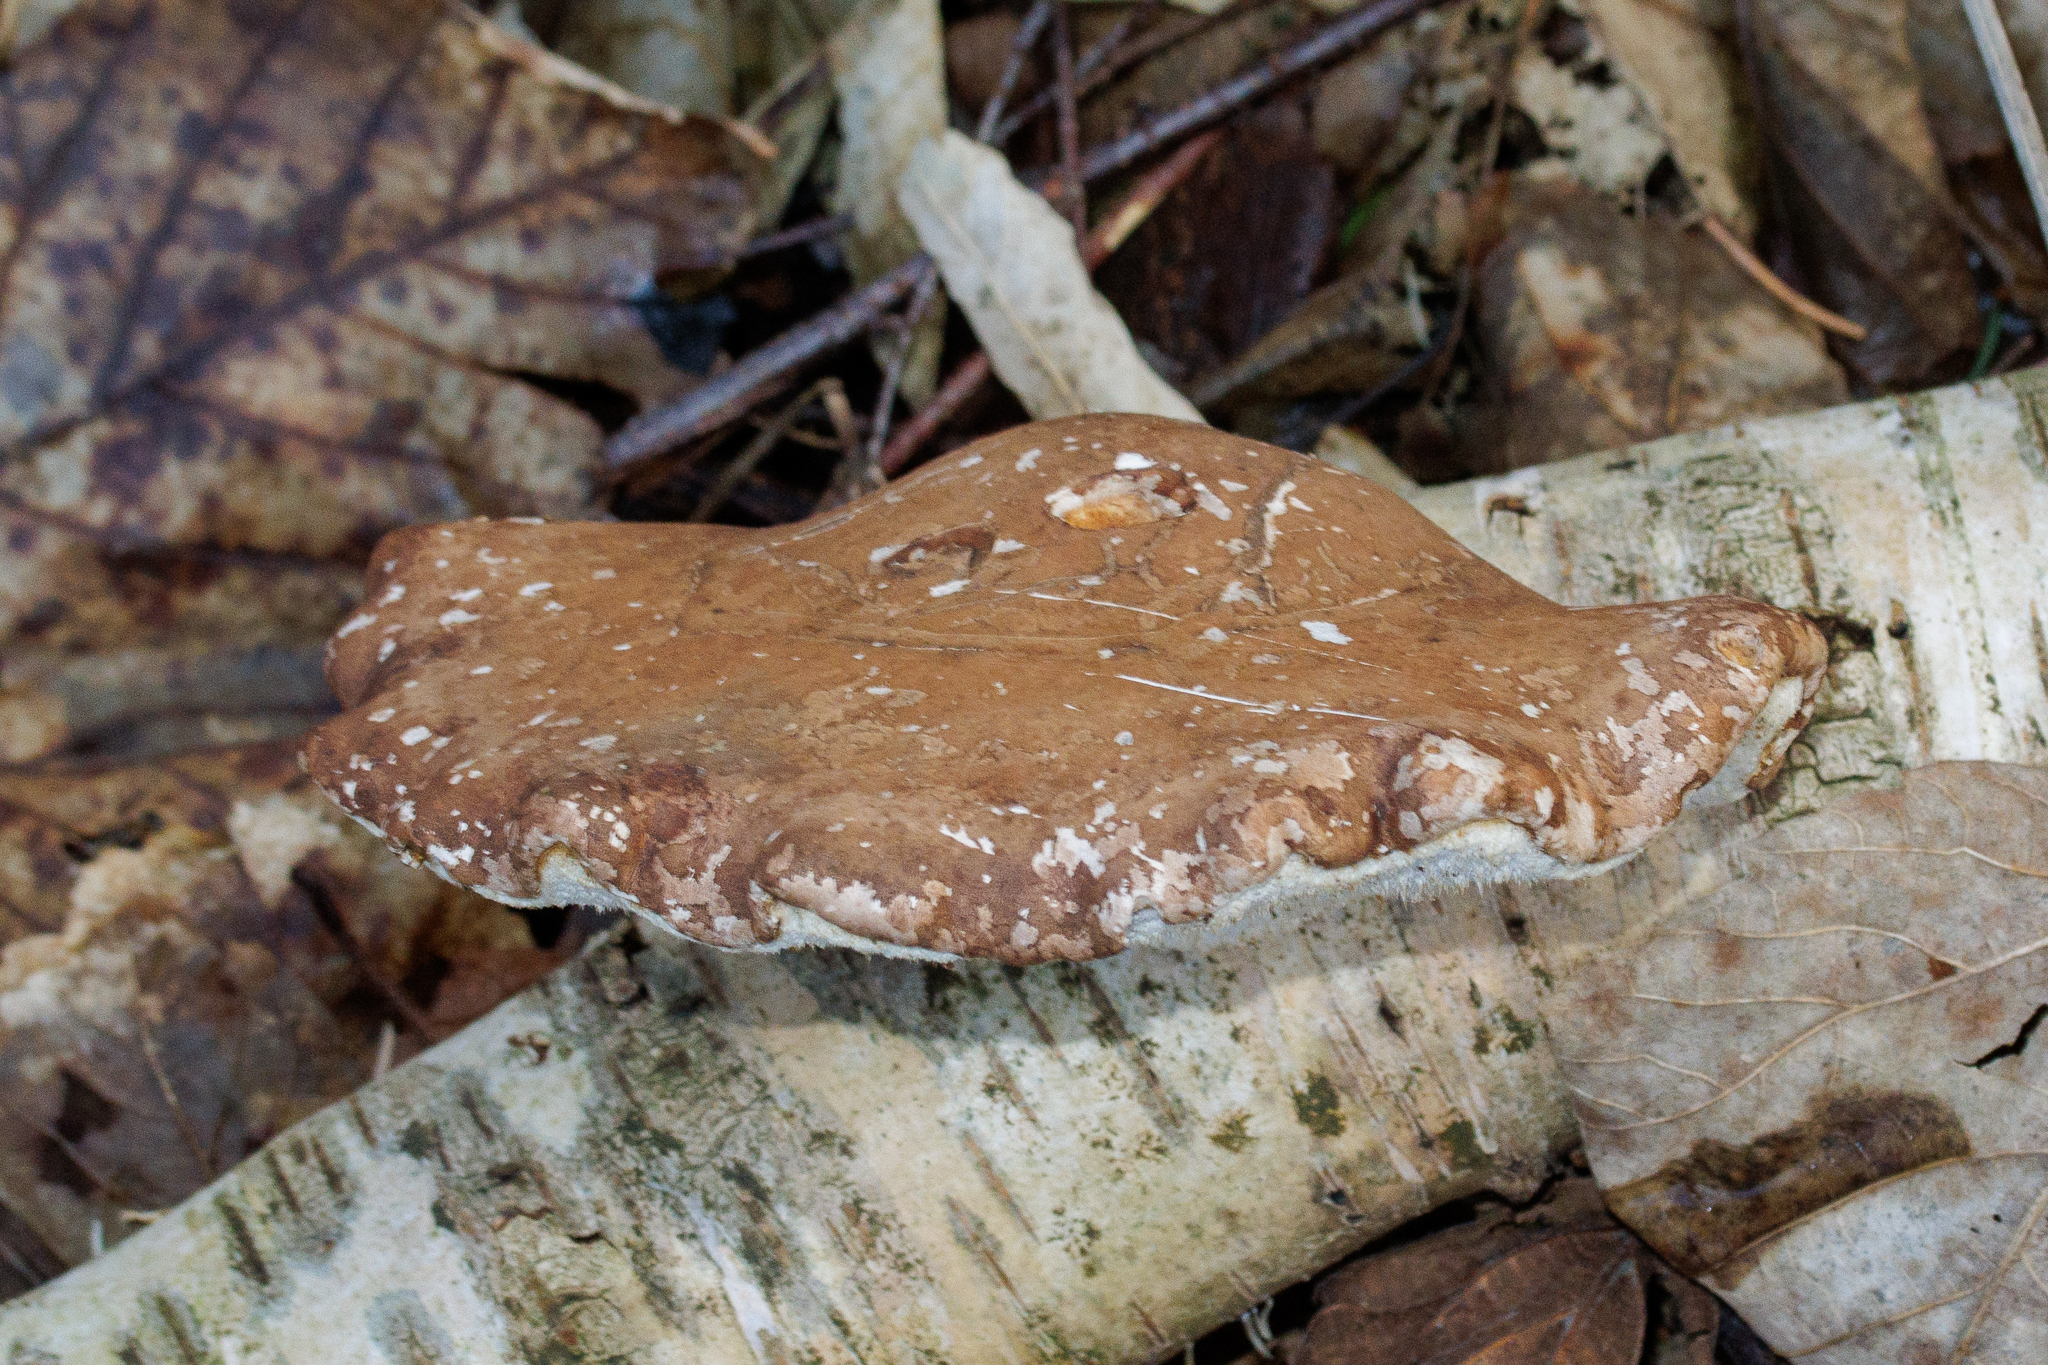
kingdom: Fungi
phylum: Basidiomycota
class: Agaricomycetes
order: Polyporales
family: Fomitopsidaceae
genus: Fomitopsis
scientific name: Fomitopsis betulina
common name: Birkeporesvamp
